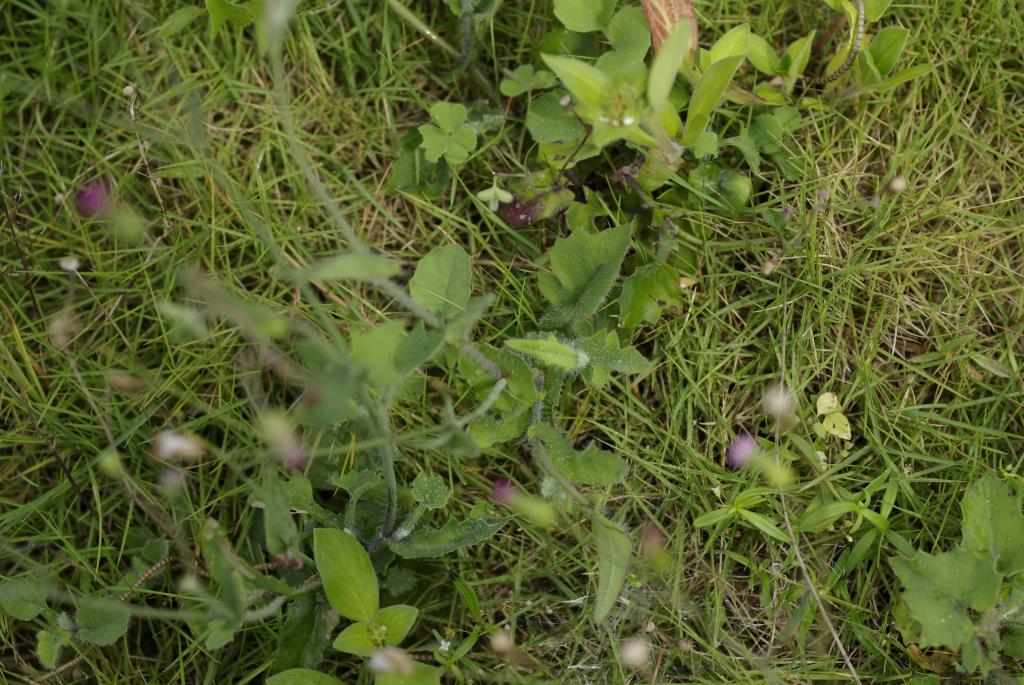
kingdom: Plantae
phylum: Tracheophyta
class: Magnoliopsida
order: Asterales
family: Asteraceae
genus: Emilia
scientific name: Emilia sonchifolia
